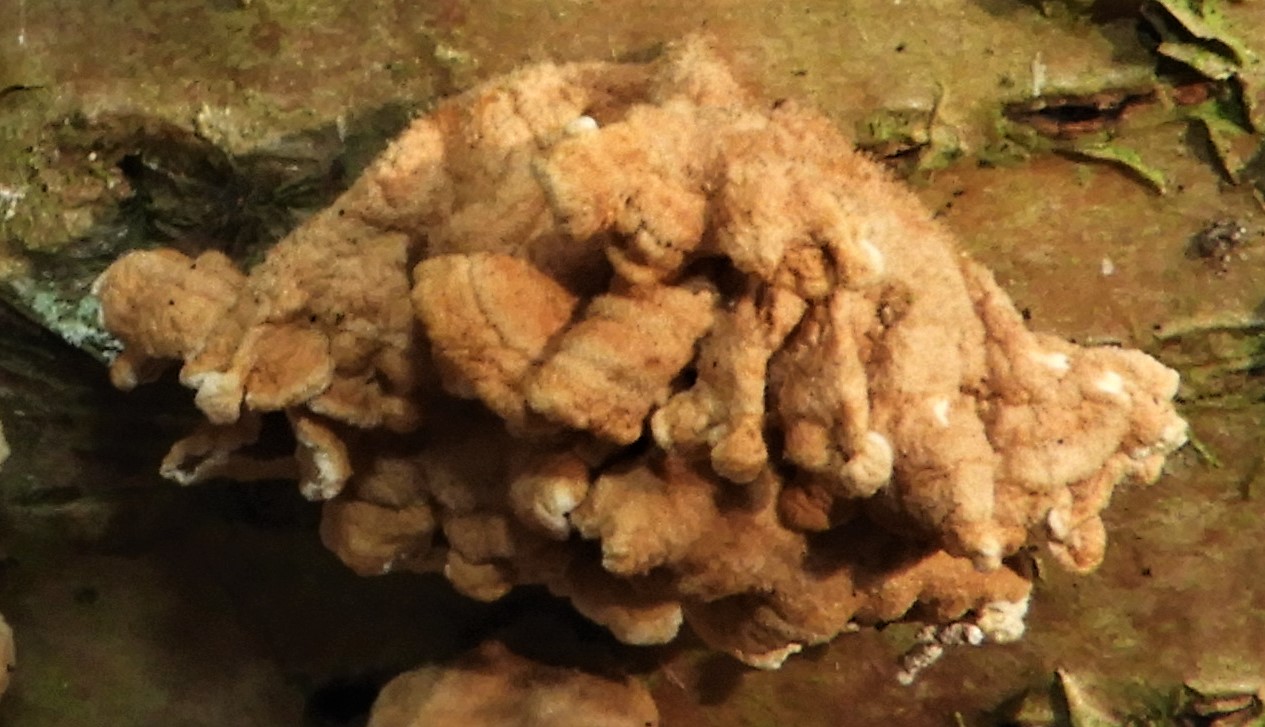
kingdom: Fungi
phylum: Basidiomycota
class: Agaricomycetes
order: Amylocorticiales
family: Amylocorticiaceae
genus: Plicaturopsis
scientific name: Plicaturopsis crispa
